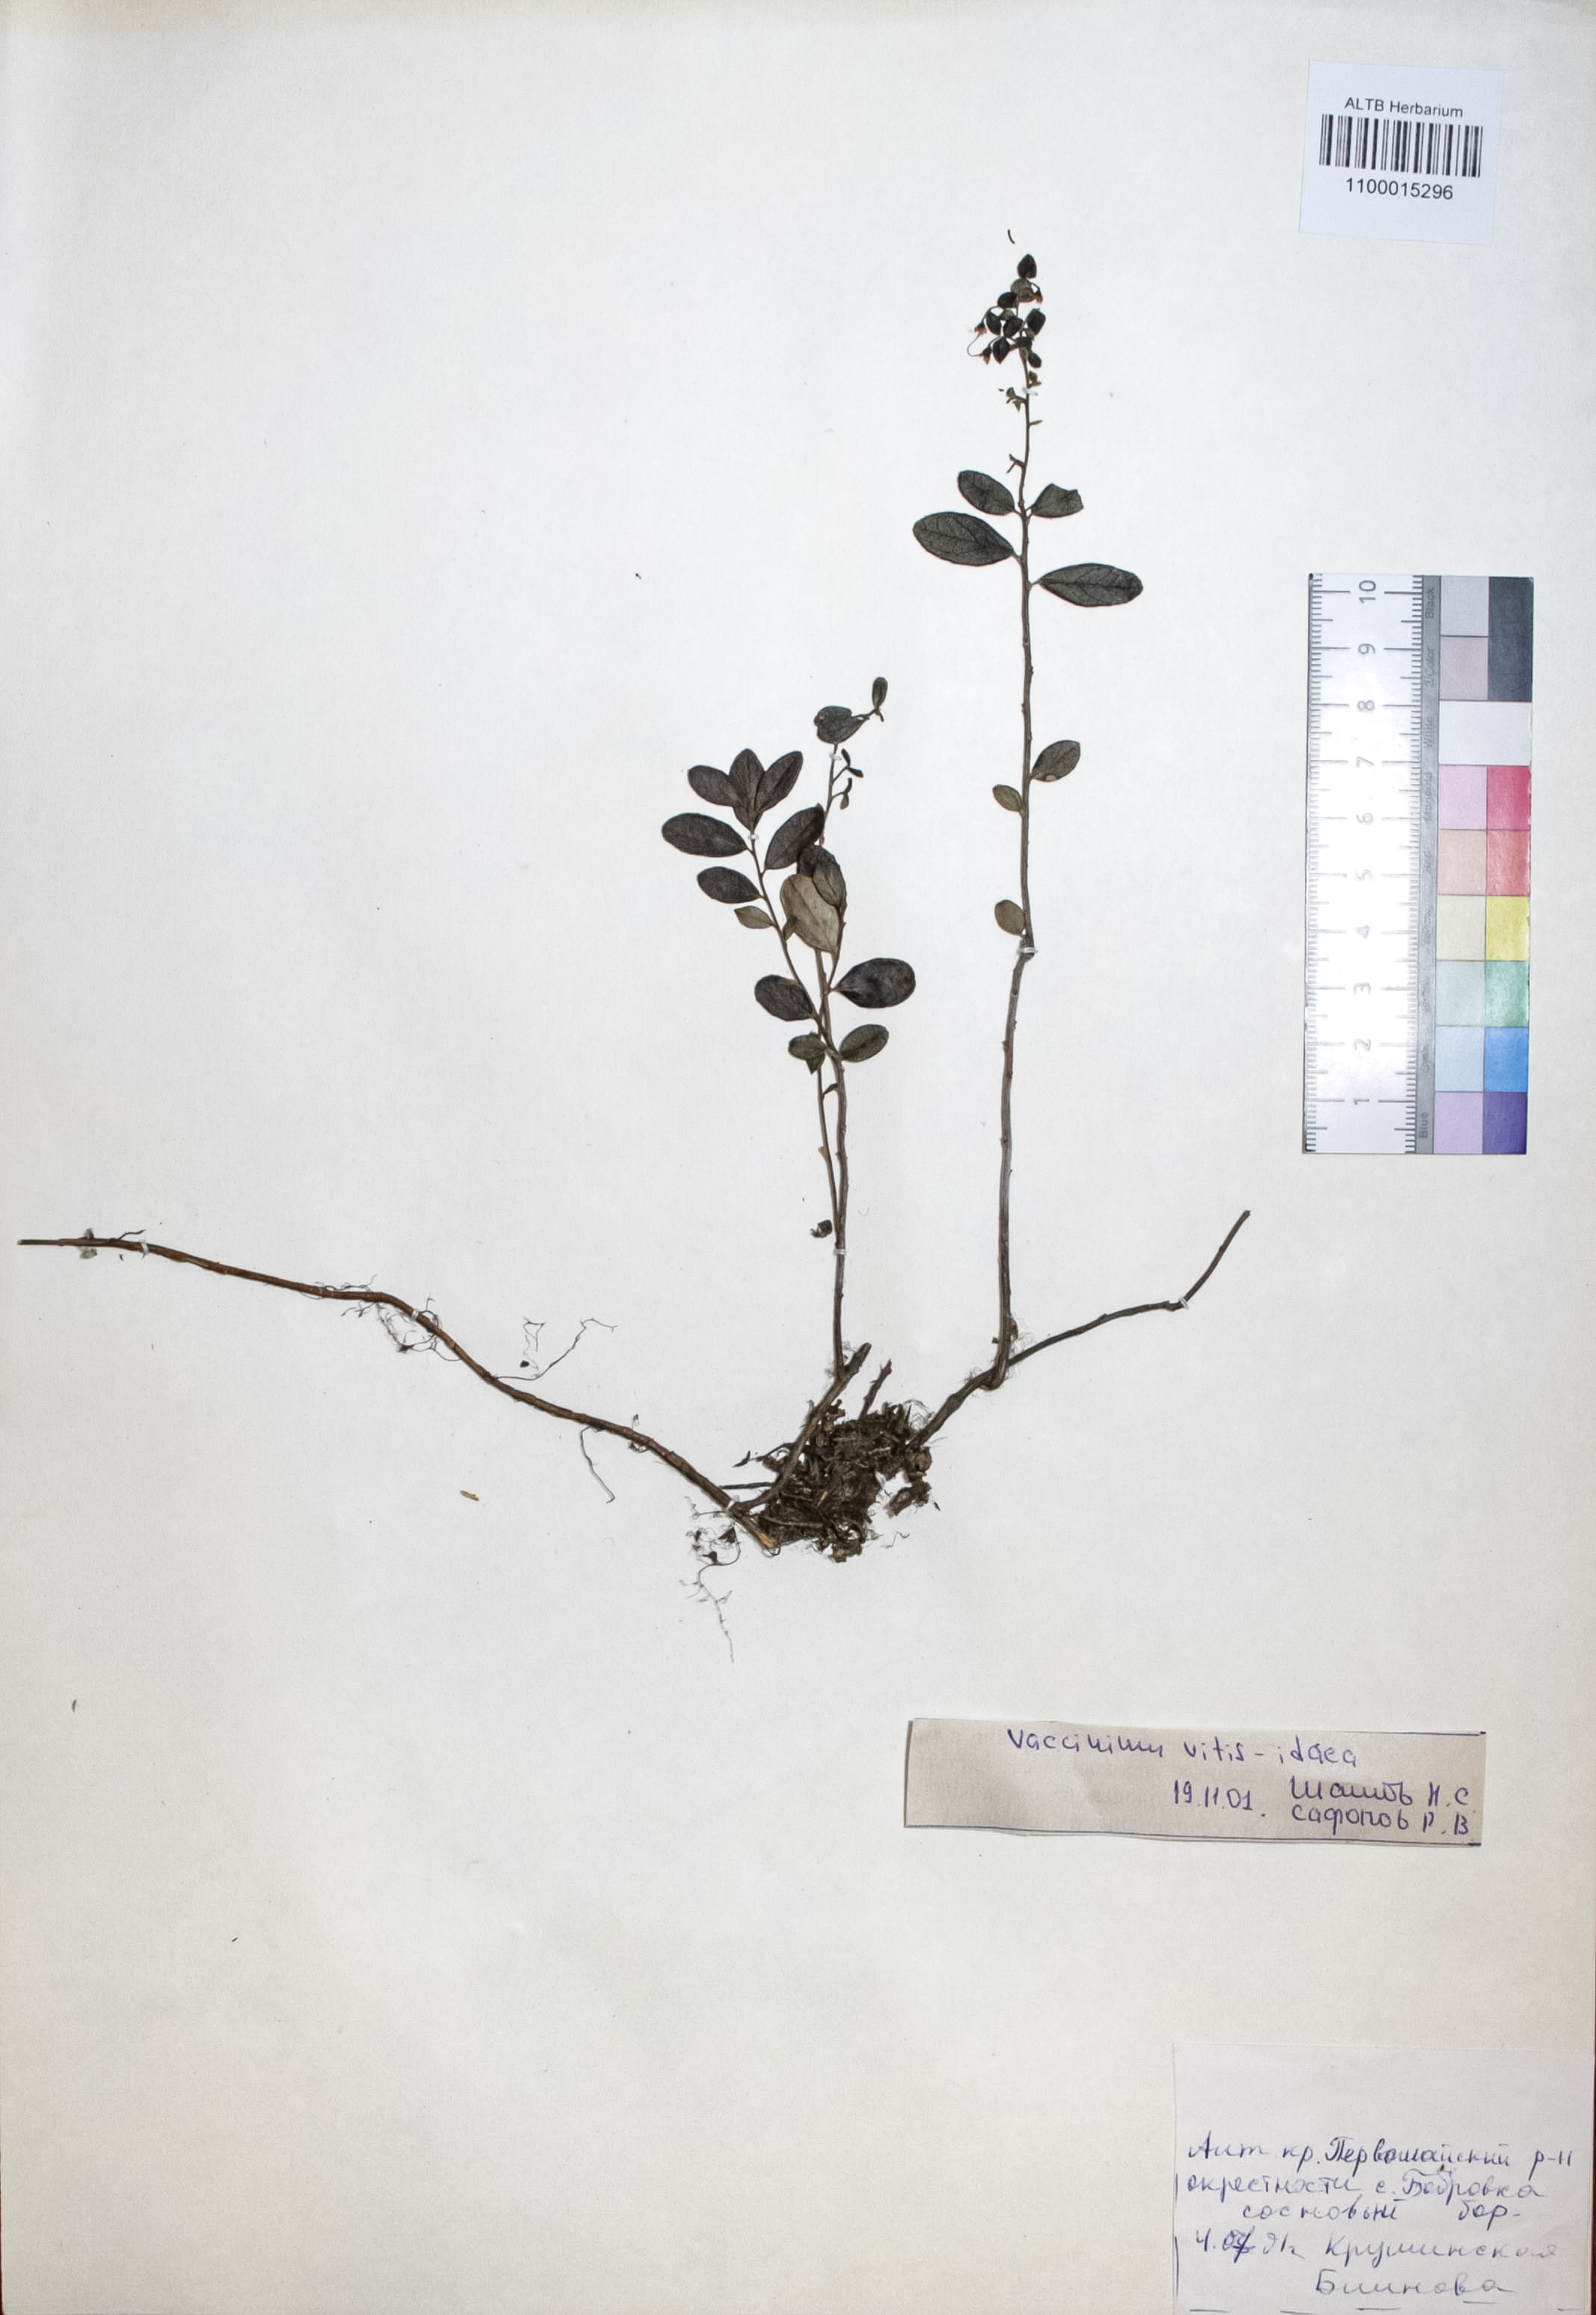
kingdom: Plantae
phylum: Tracheophyta
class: Magnoliopsida
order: Ericales
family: Ericaceae
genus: Vaccinium
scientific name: Vaccinium vitis-idaea
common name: Cowberry
